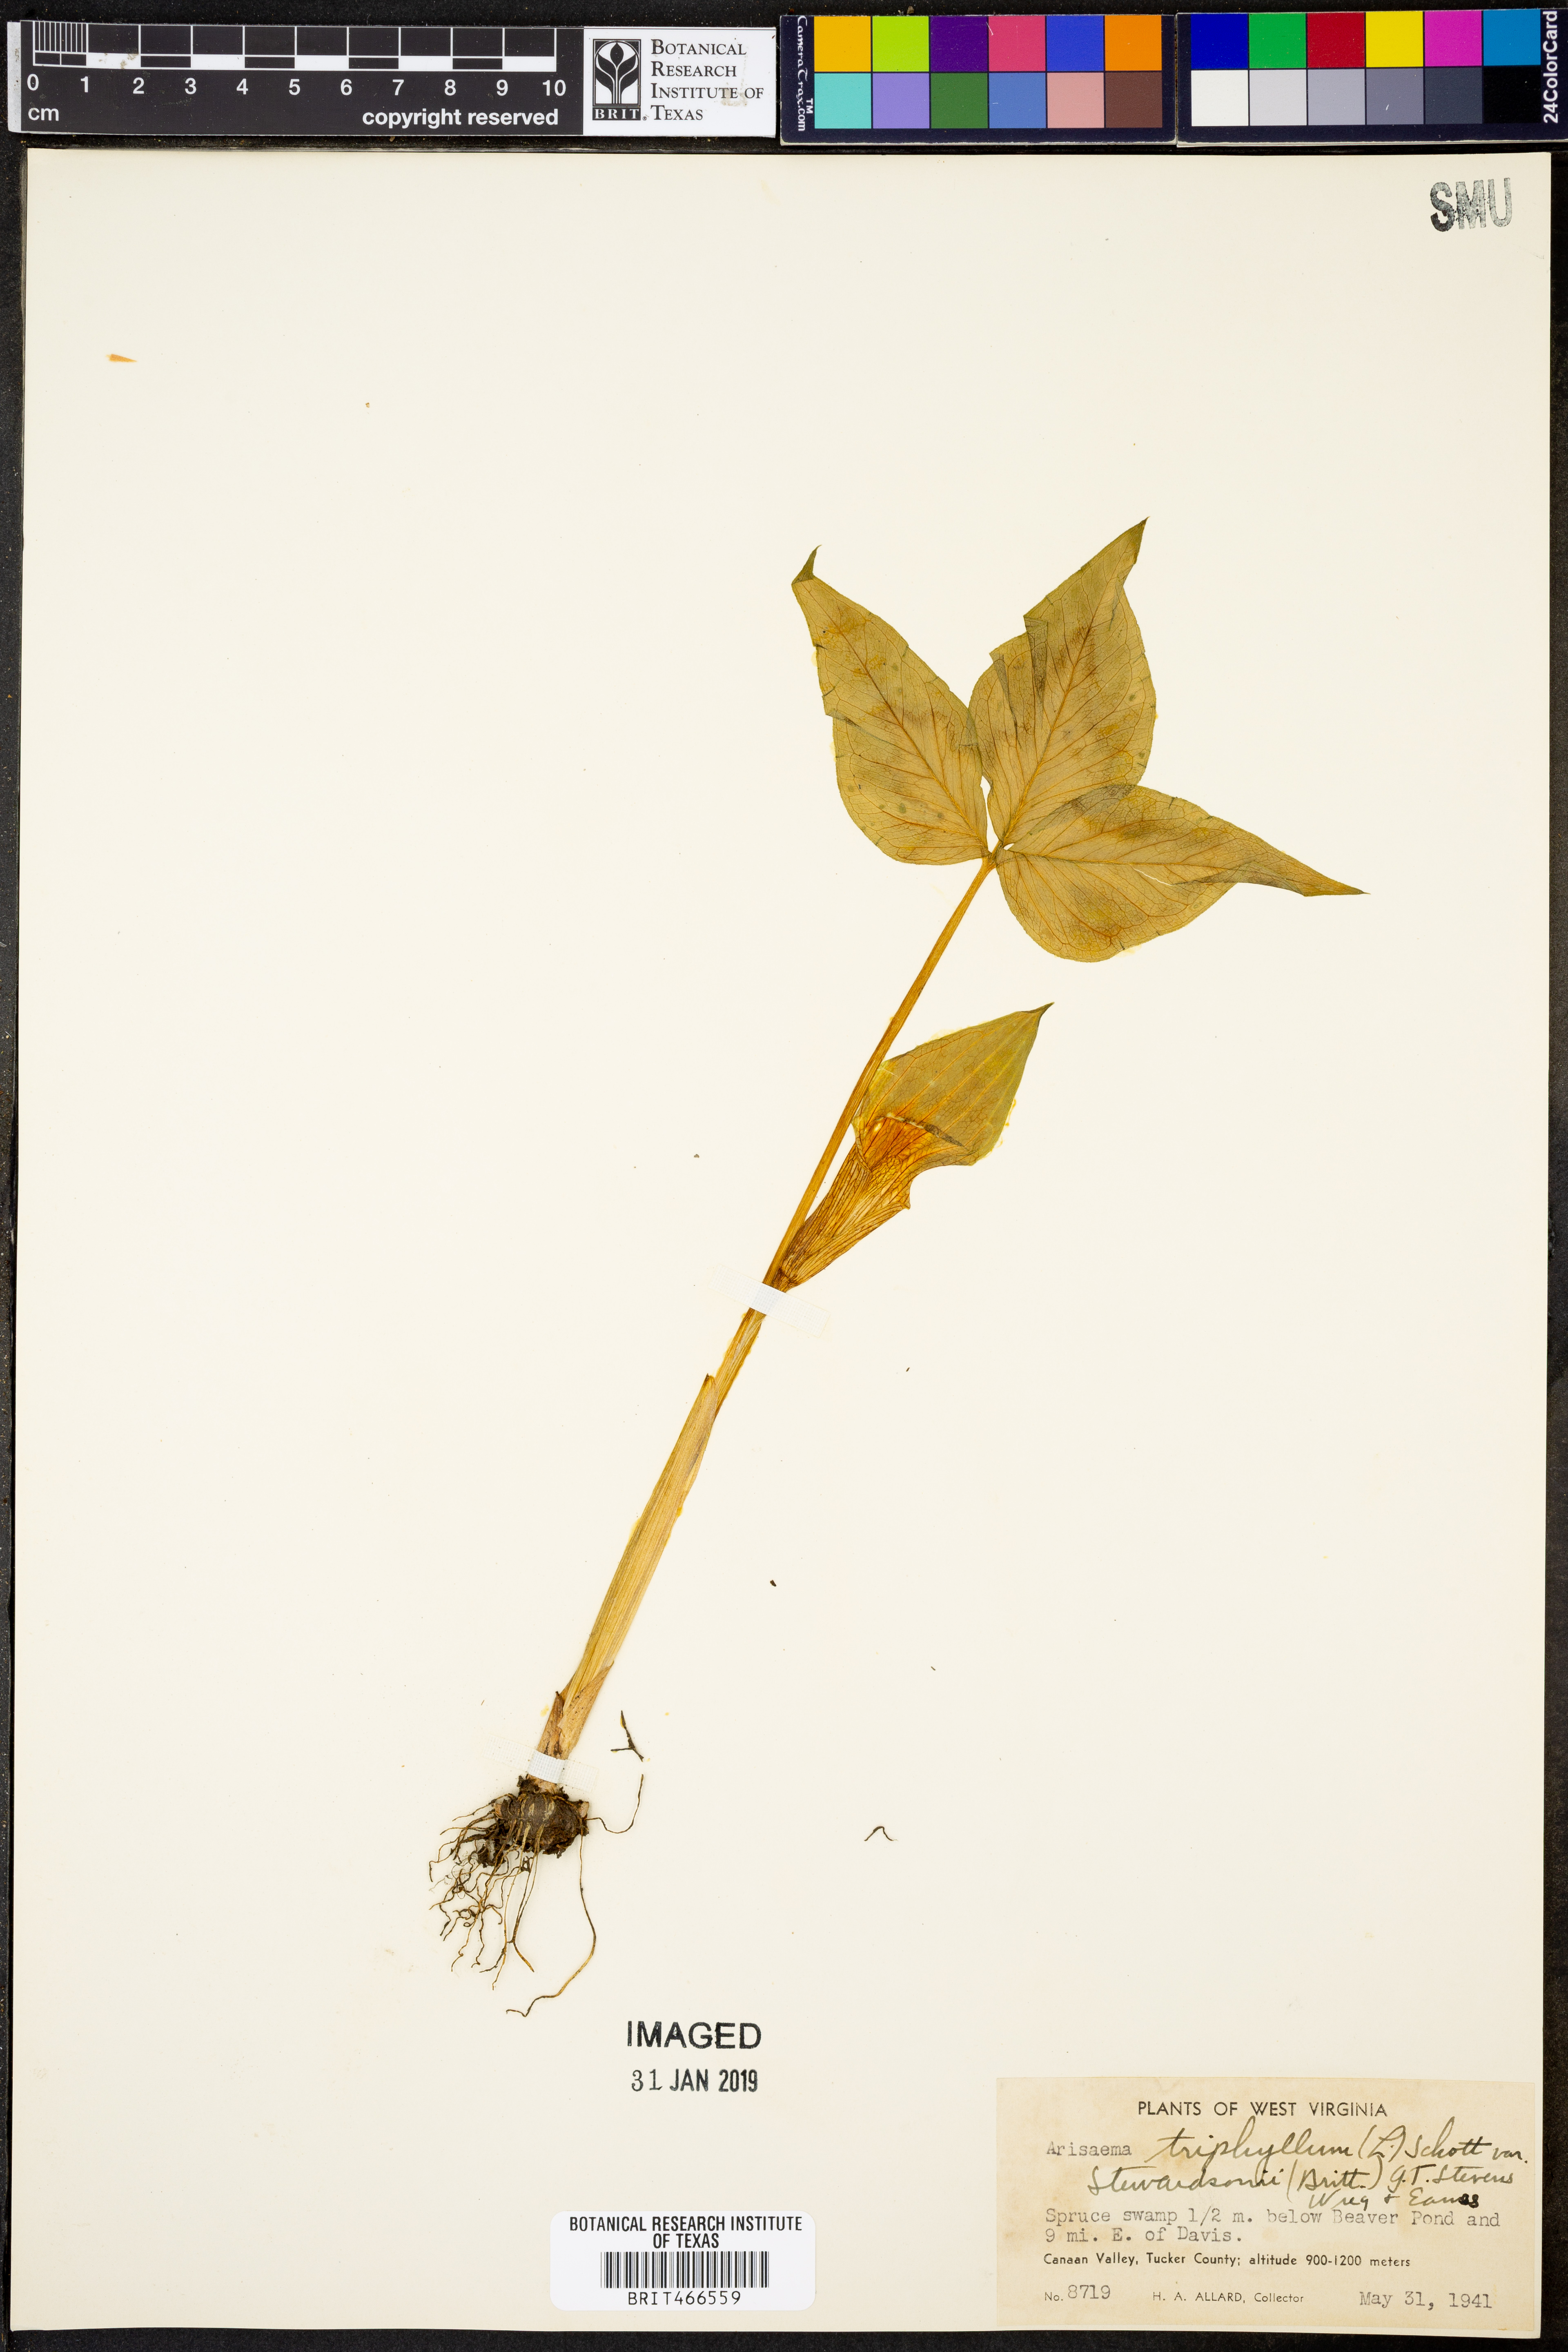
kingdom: Plantae
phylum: Tracheophyta
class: Liliopsida
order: Alismatales
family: Araceae
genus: Arisaema
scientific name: Arisaema stewardsonii
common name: Swamp jack-in-the-pulpit
